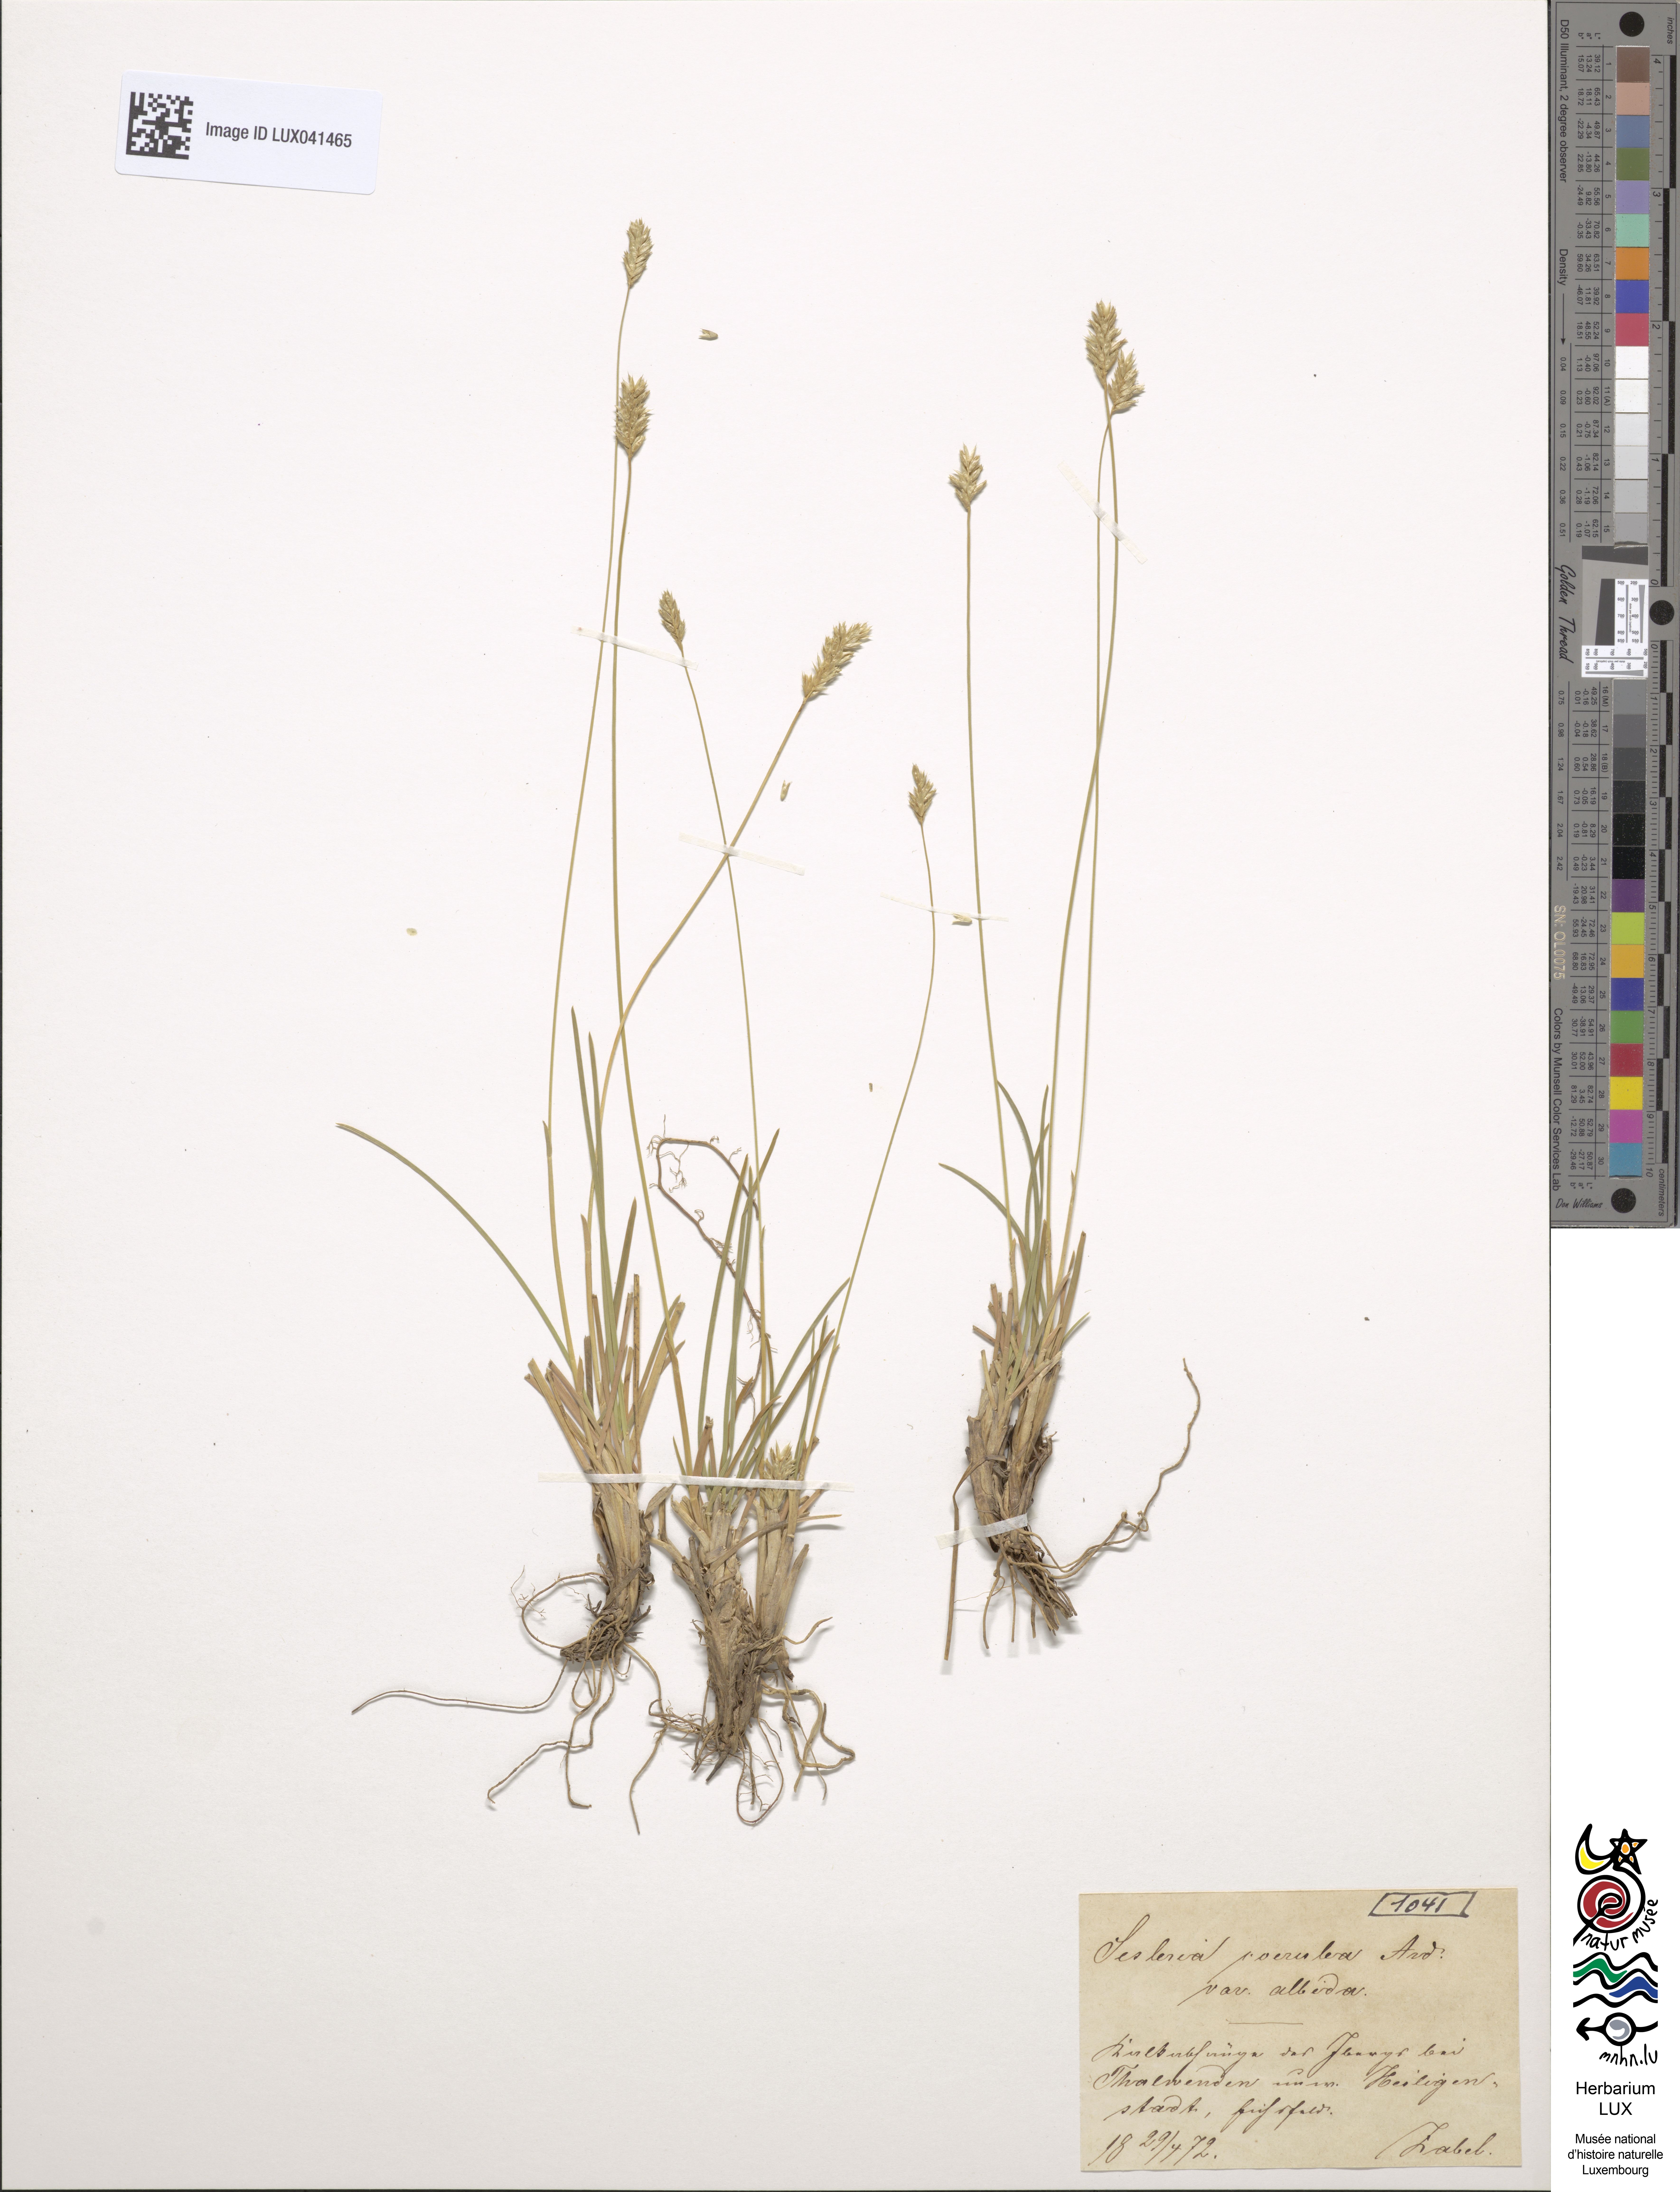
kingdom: Plantae
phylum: Tracheophyta
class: Liliopsida
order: Poales
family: Poaceae
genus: Sesleria
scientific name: Sesleria
